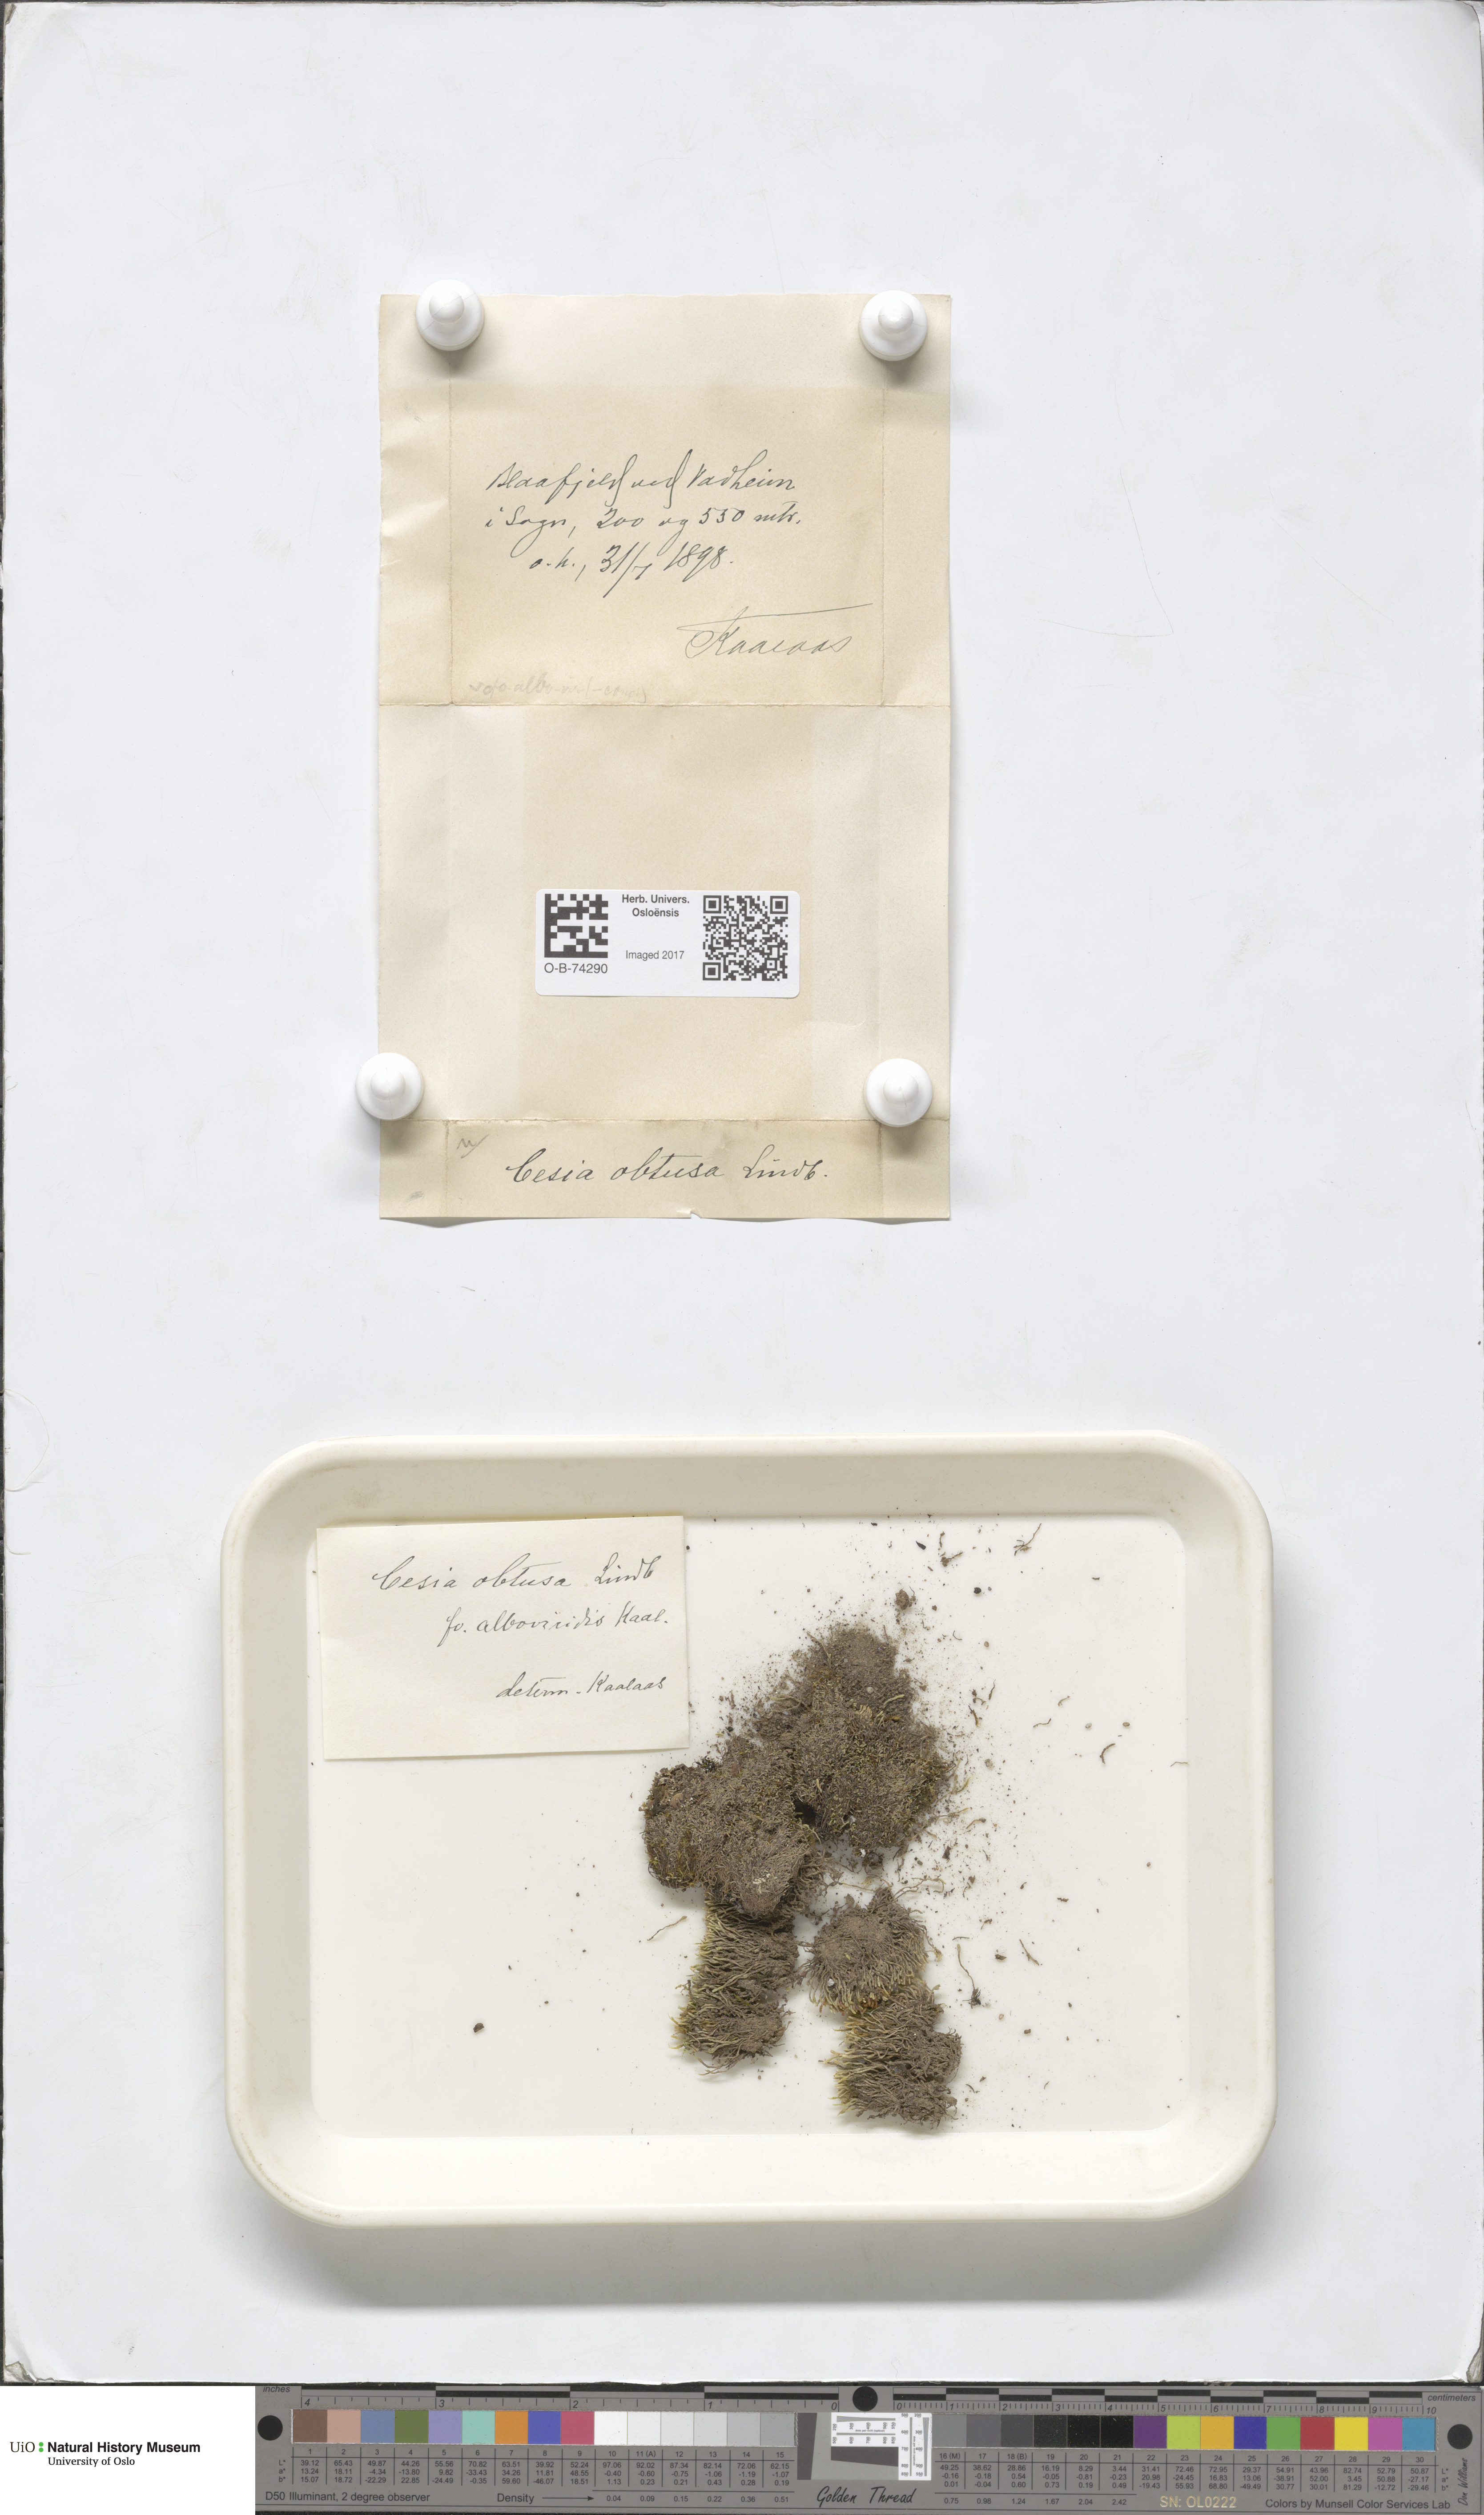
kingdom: Plantae
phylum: Marchantiophyta
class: Jungermanniopsida
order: Jungermanniales
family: Gymnomitriaceae
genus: Gymnomitrion
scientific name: Gymnomitrion obtusum
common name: White frostwort
